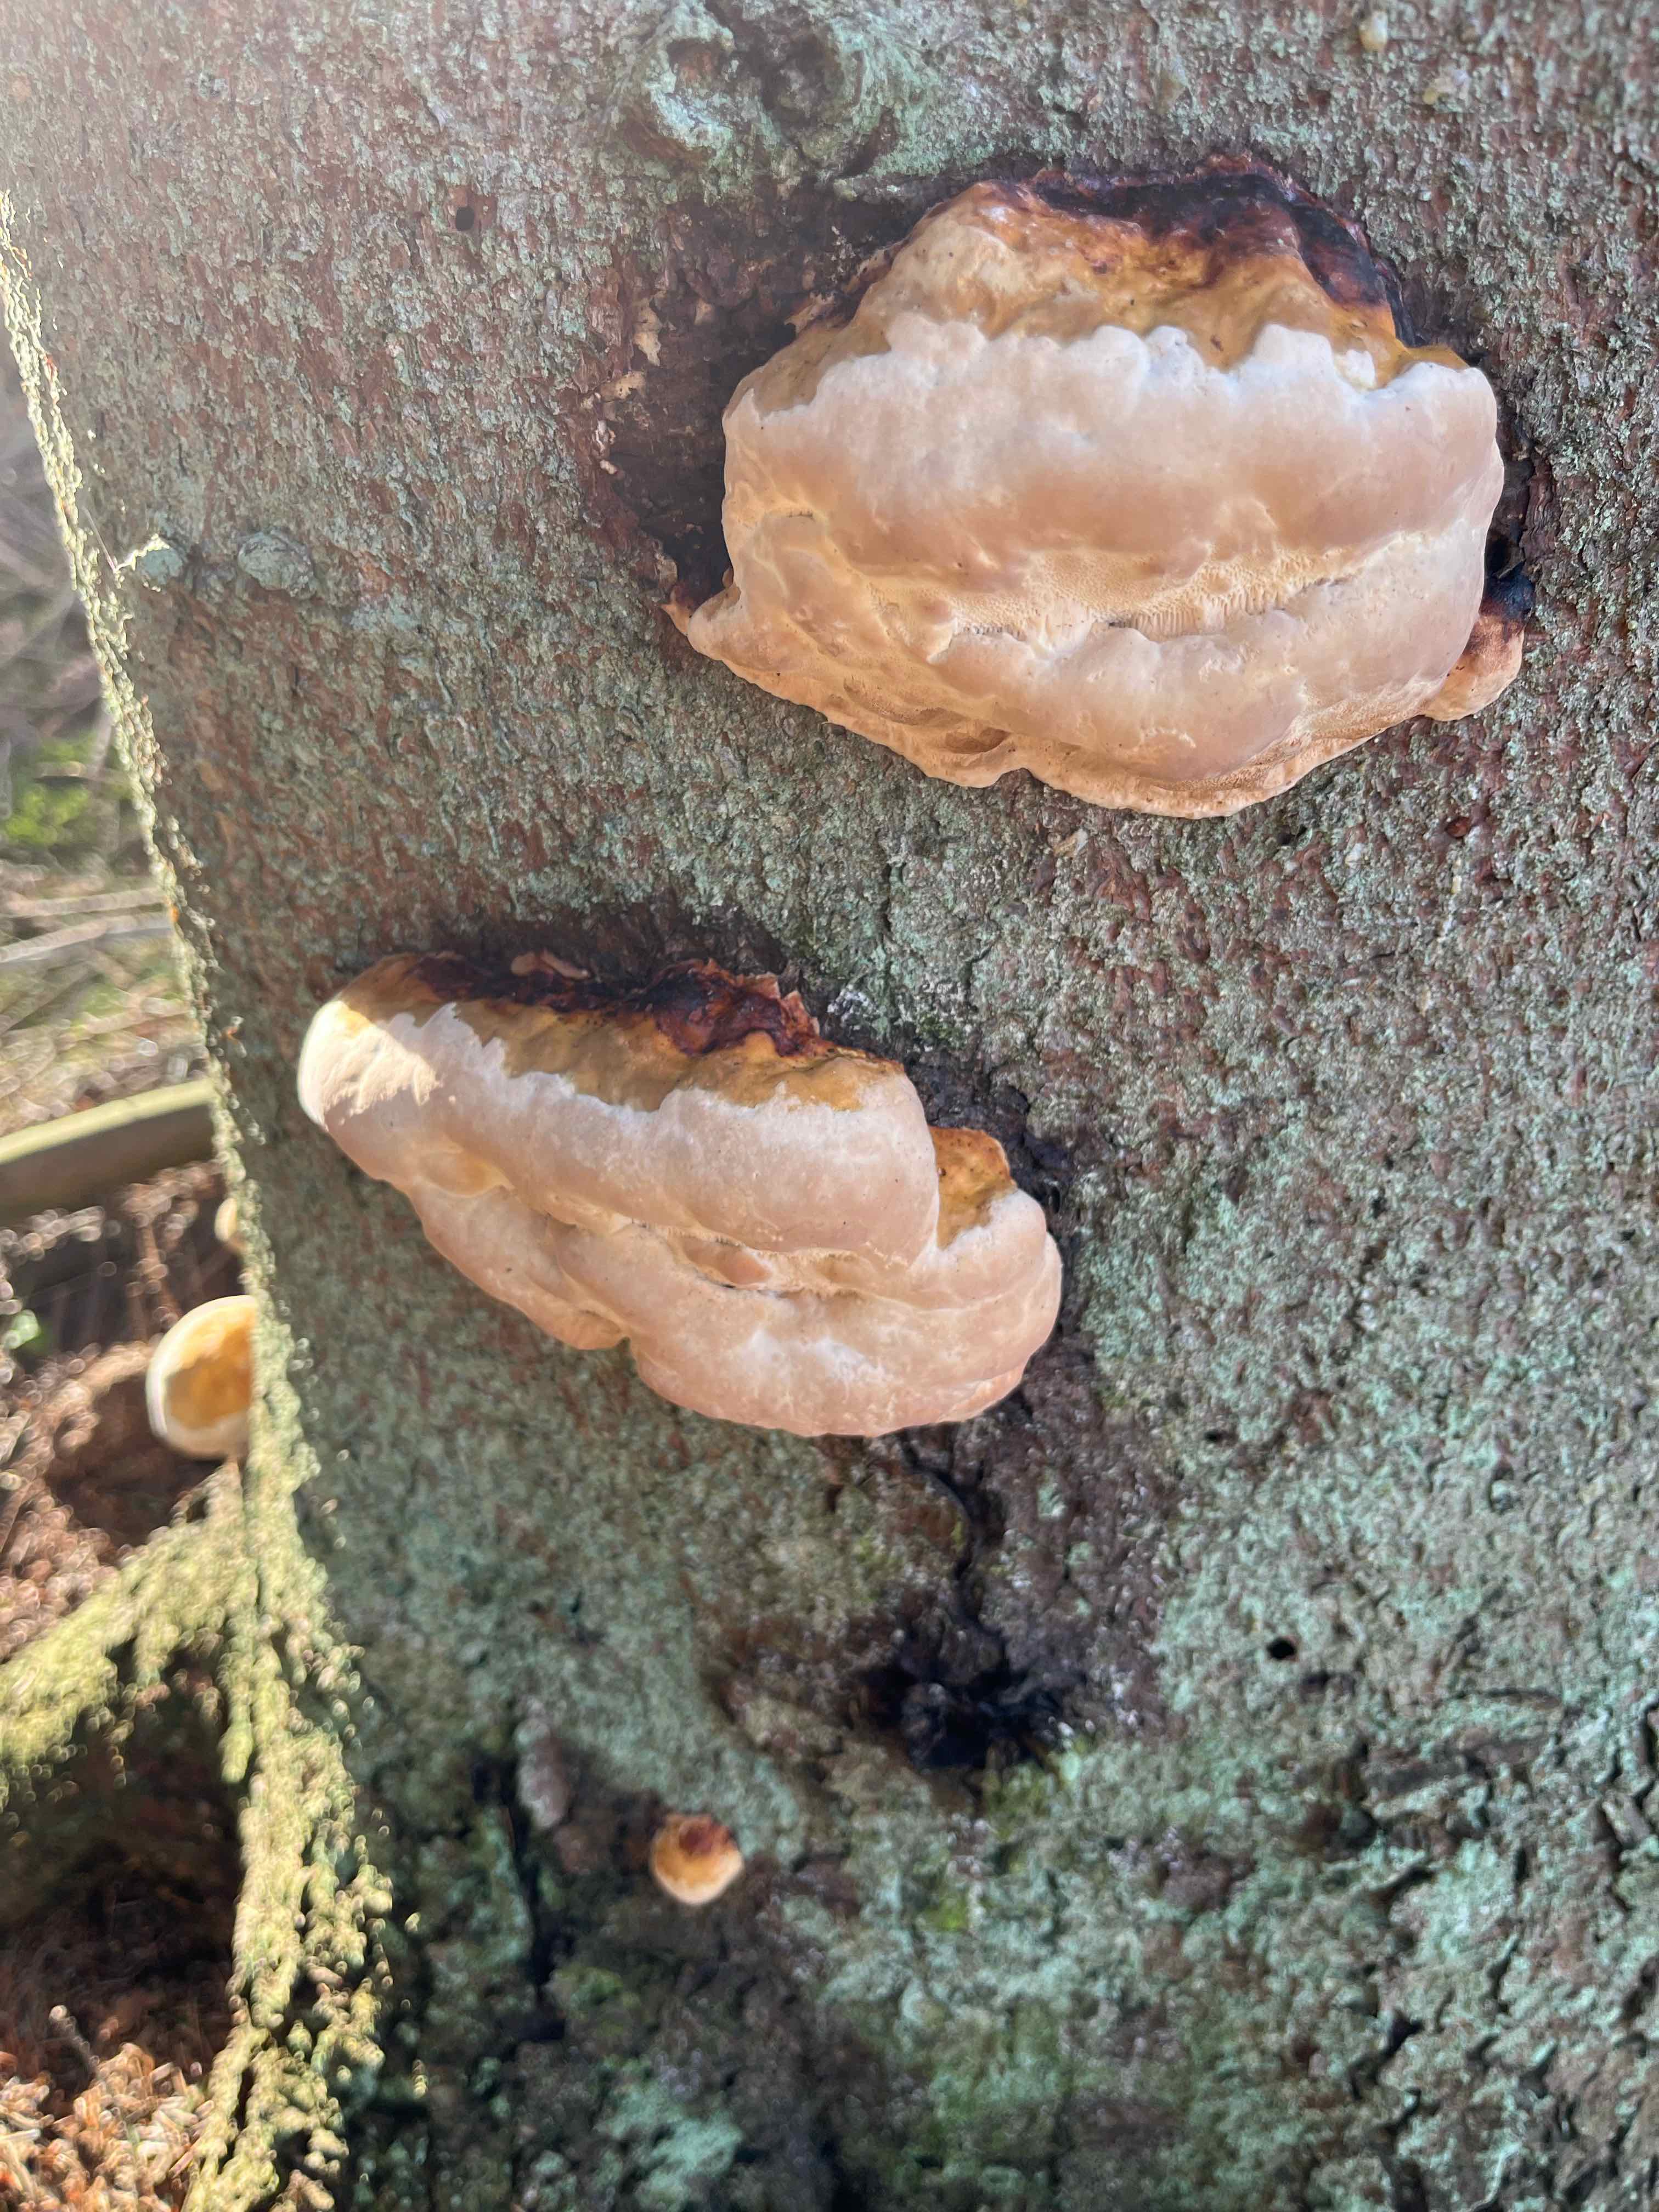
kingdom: Fungi
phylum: Basidiomycota
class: Agaricomycetes
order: Polyporales
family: Fomitopsidaceae
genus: Fomitopsis
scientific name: Fomitopsis pinicola
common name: randbæltet hovporesvamp
